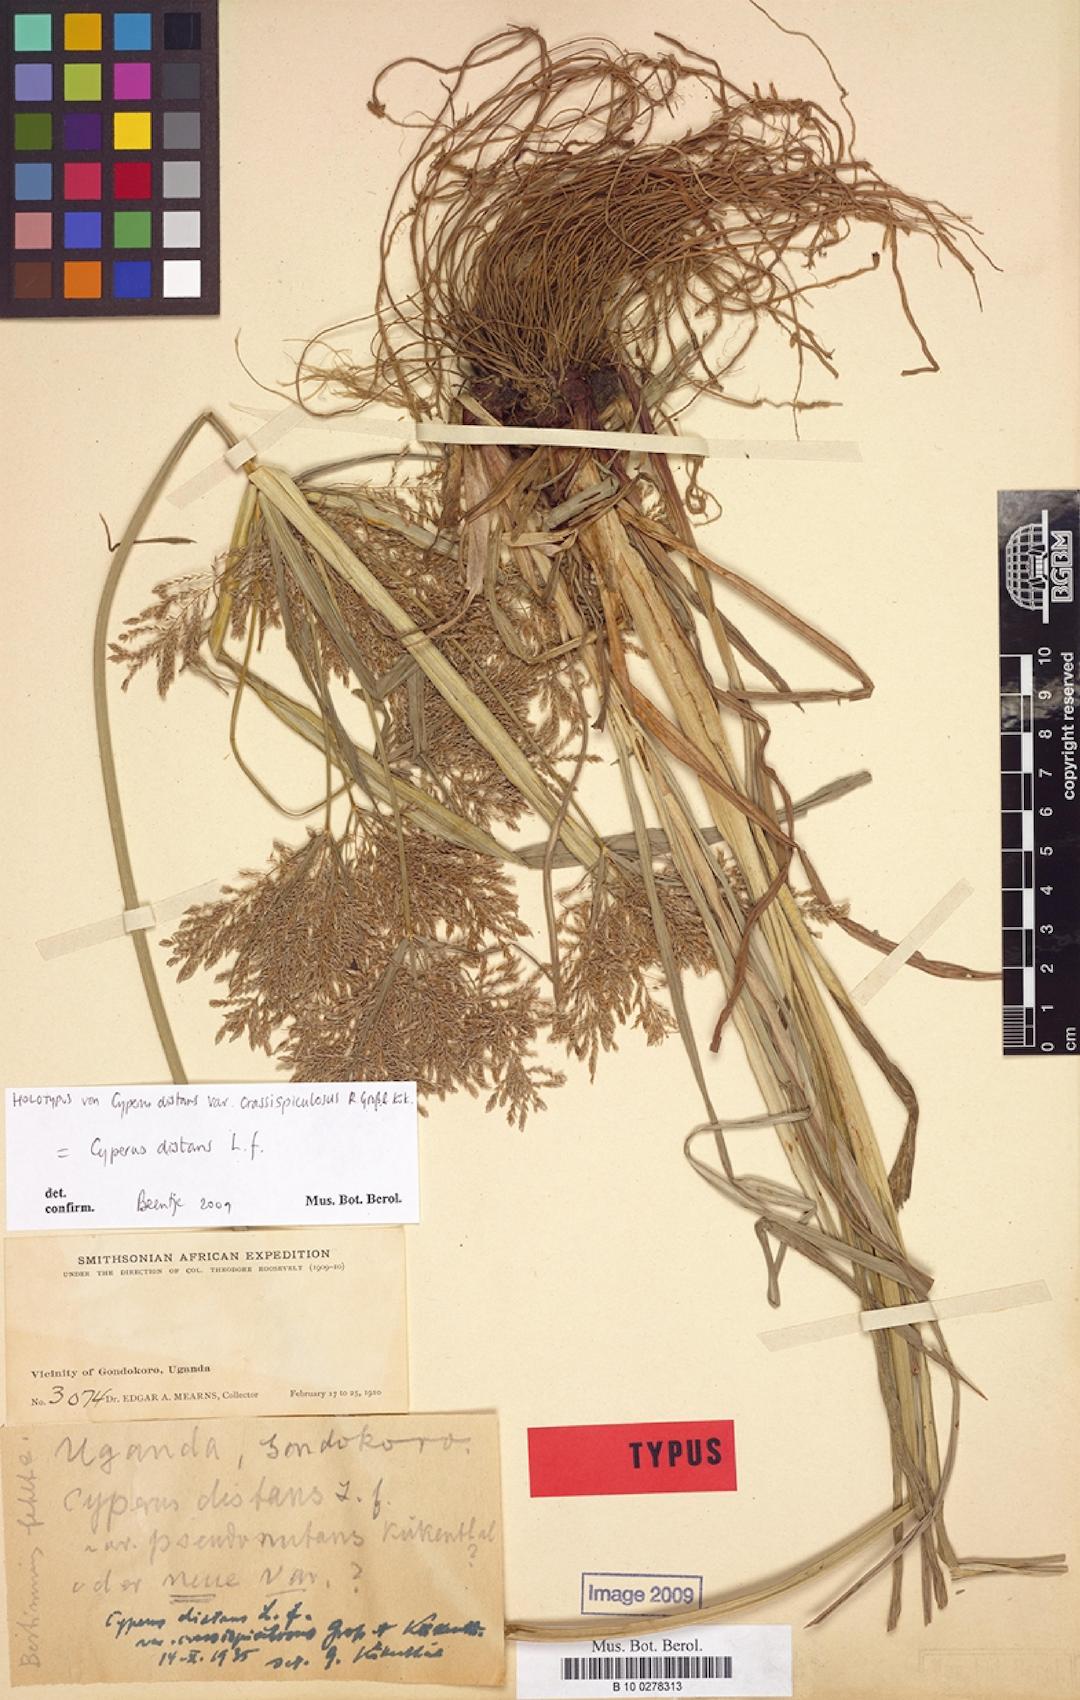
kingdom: Plantae
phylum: Tracheophyta
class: Liliopsida
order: Poales
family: Cyperaceae
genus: Cyperus
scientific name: Cyperus distans
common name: Slender cyperus
